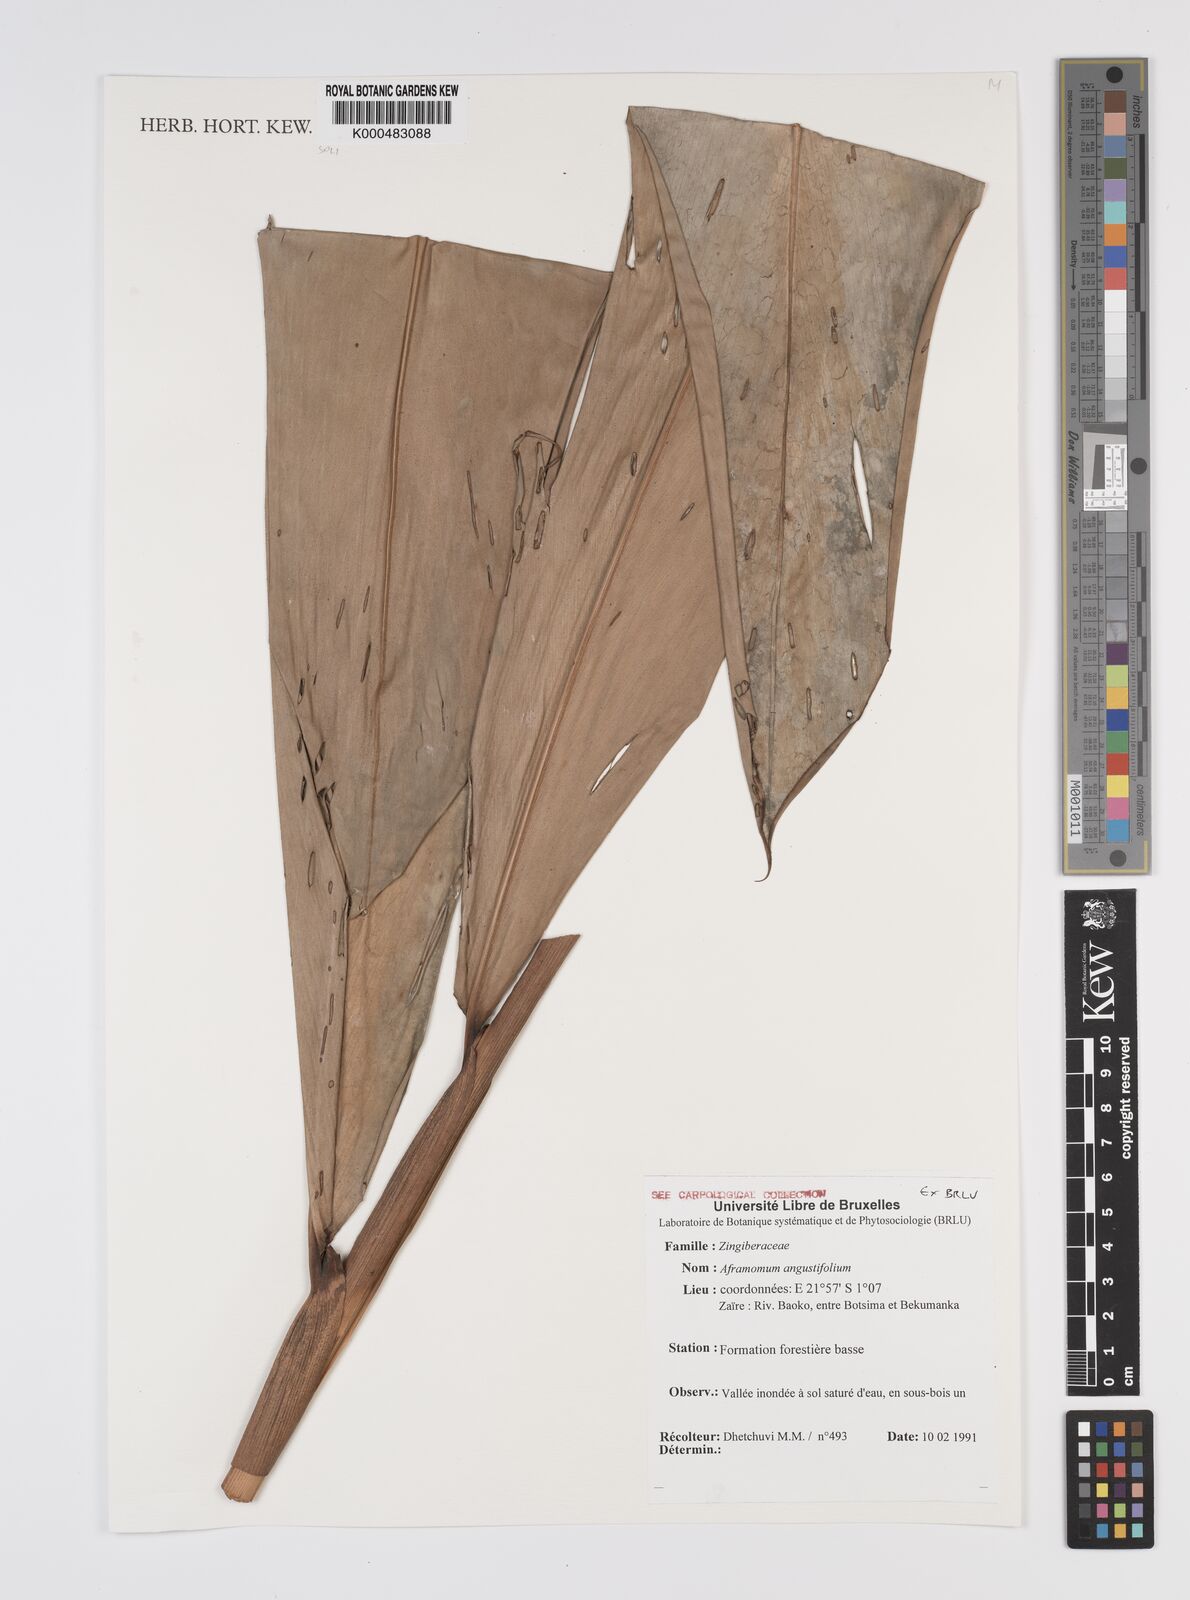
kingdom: Plantae
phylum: Tracheophyta
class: Liliopsida
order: Zingiberales
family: Zingiberaceae
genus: Aframomum
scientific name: Aframomum angustifolium
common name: Guinea grains
